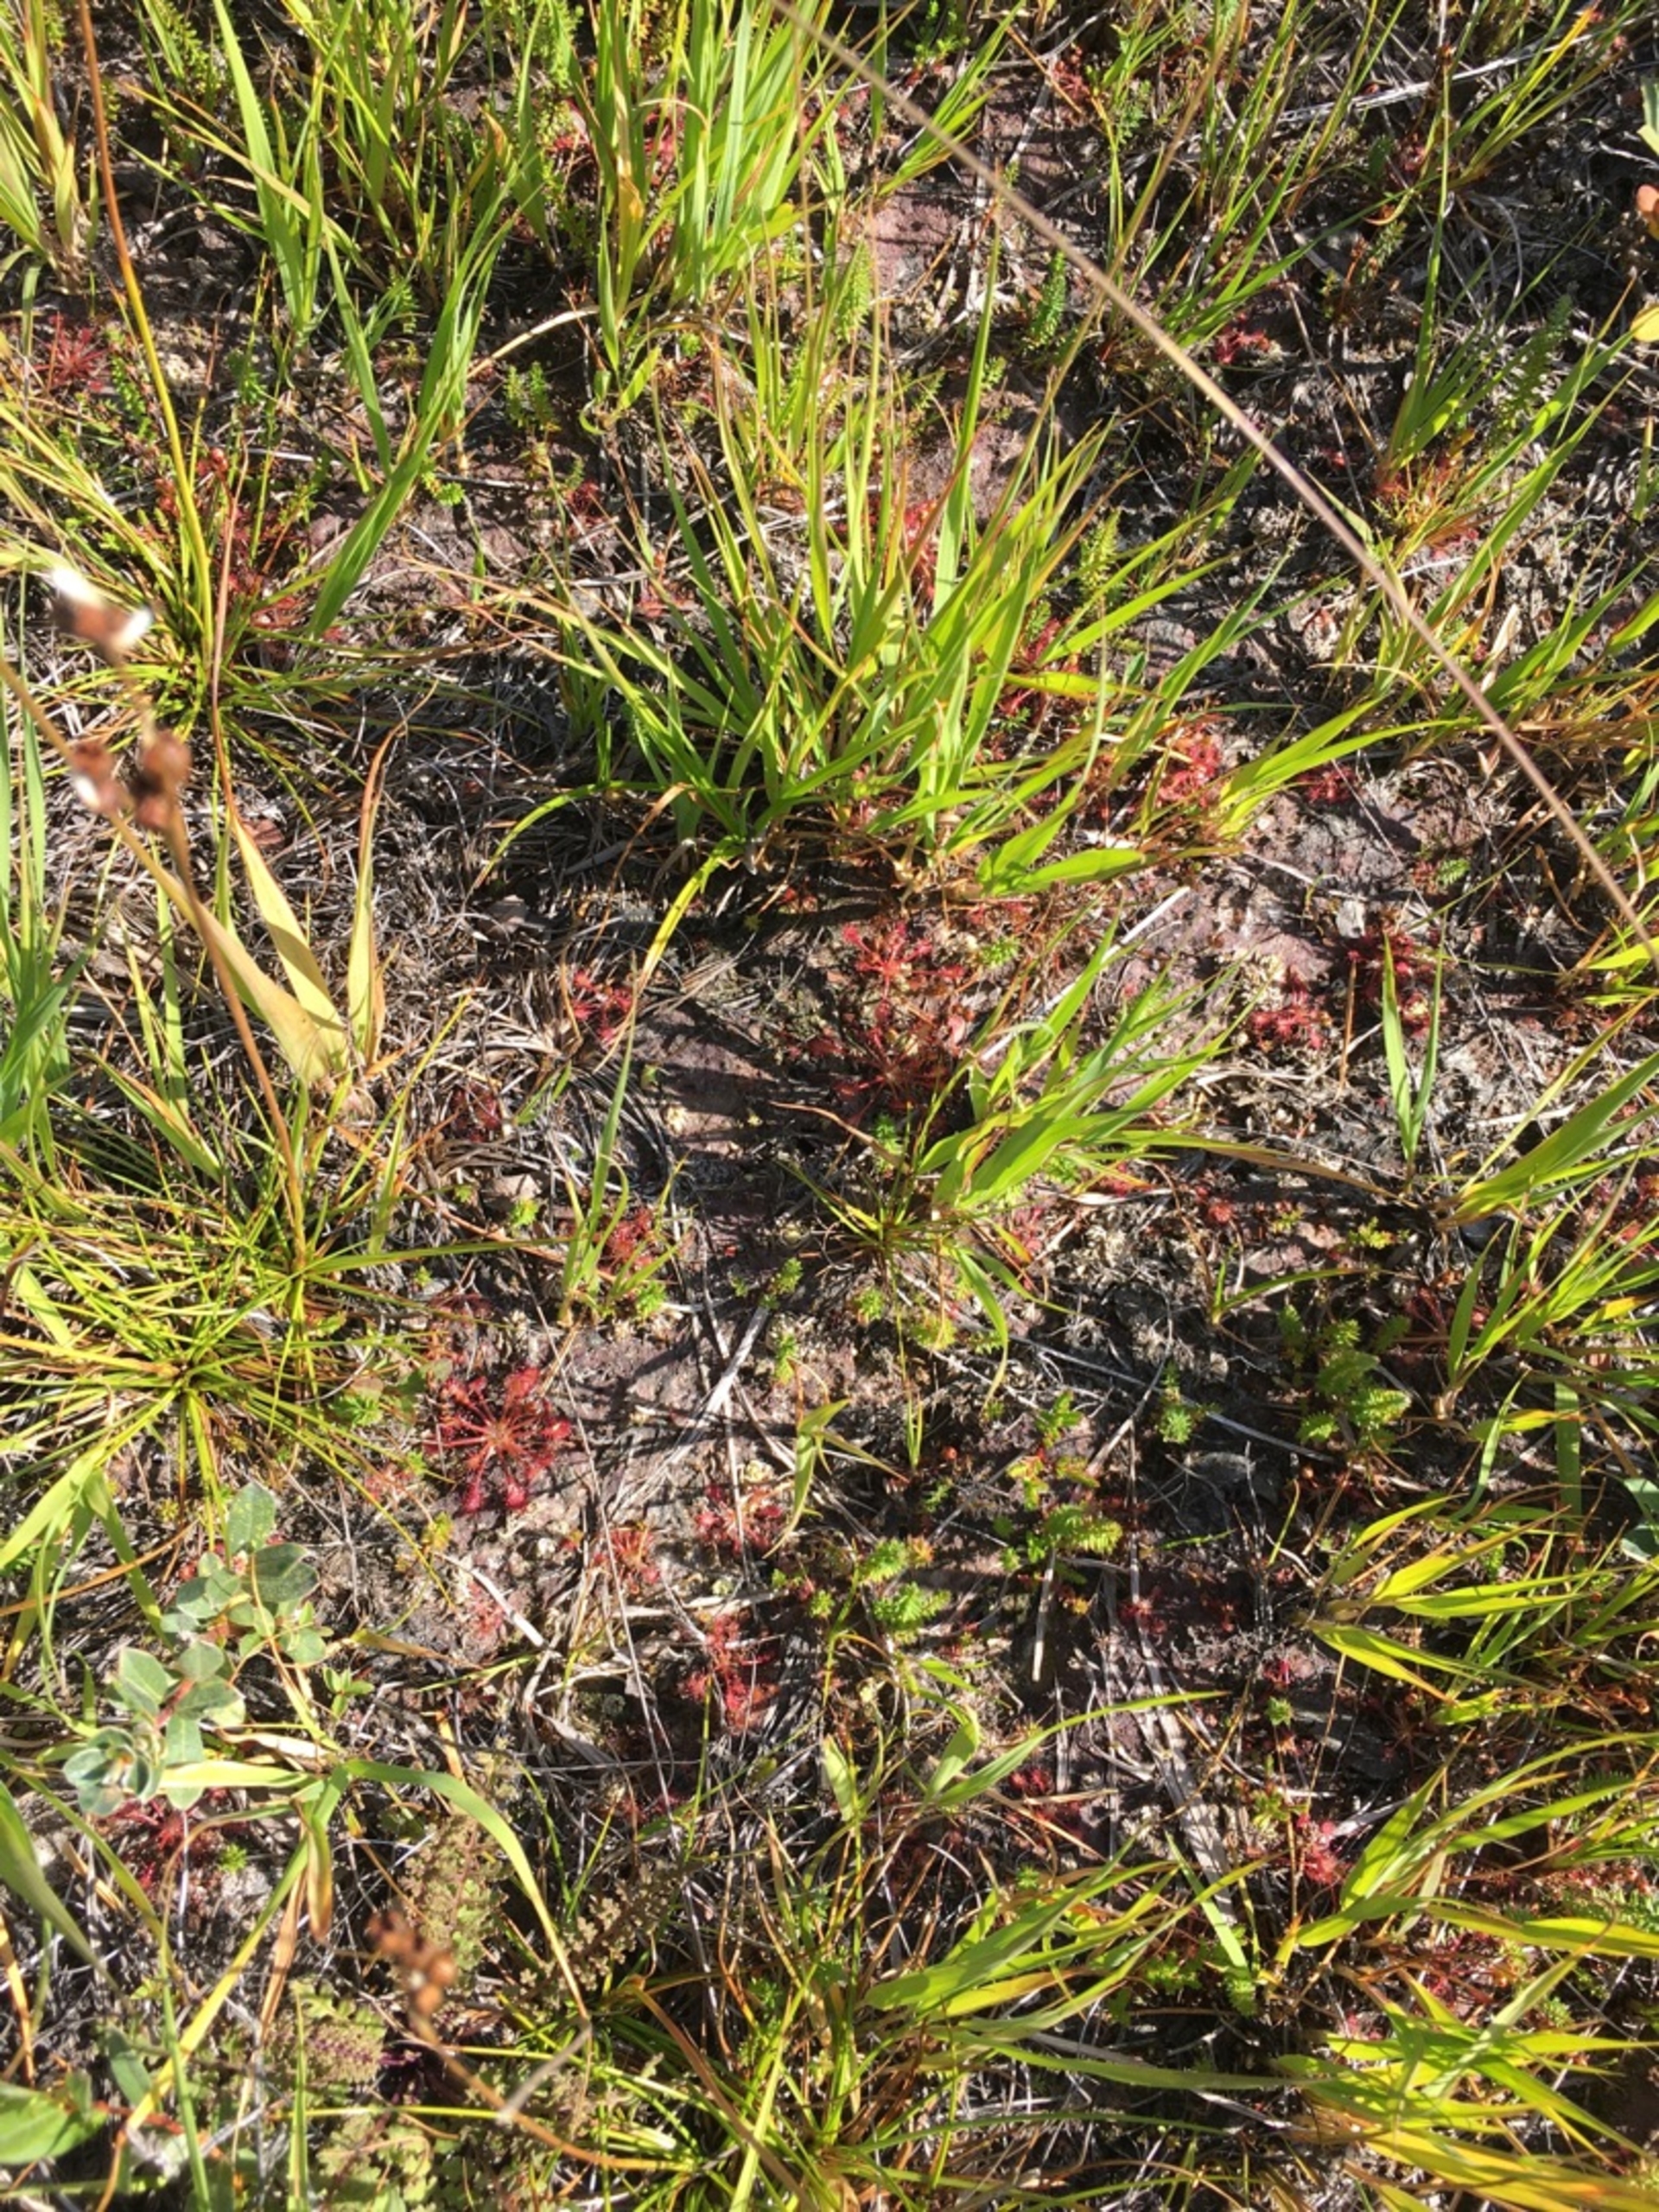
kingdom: Plantae
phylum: Tracheophyta
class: Magnoliopsida
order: Caryophyllales
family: Droseraceae
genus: Drosera
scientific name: Drosera intermedia
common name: Liden soldug
